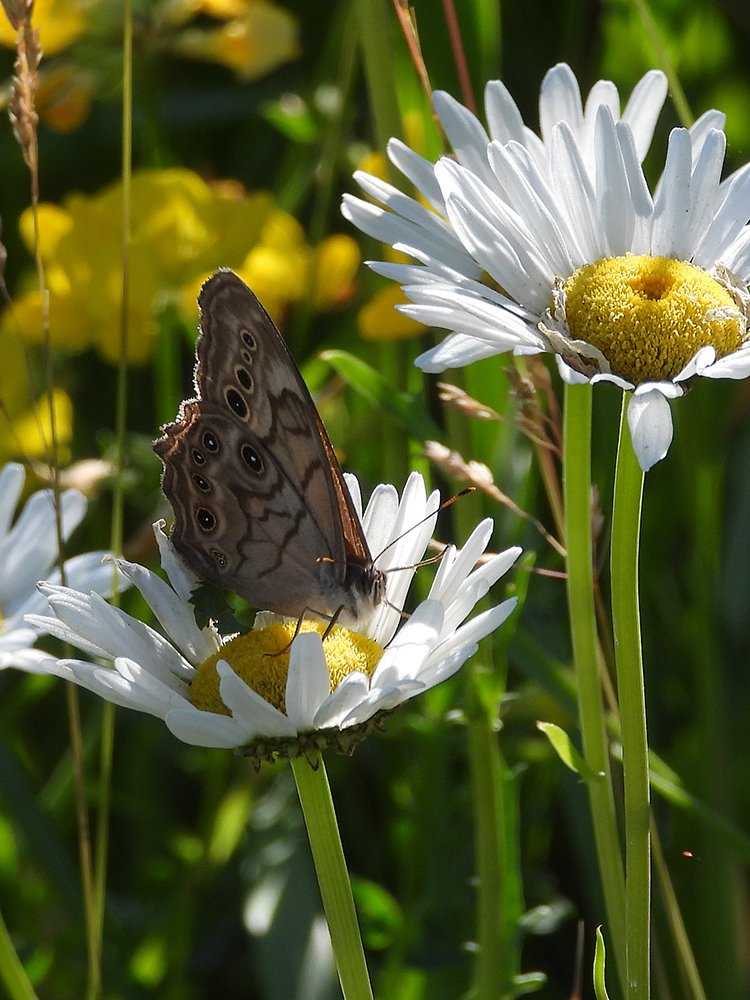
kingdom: Animalia
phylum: Arthropoda
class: Insecta
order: Lepidoptera
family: Nymphalidae
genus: Lethe
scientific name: Lethe anthedon
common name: Northern Pearly-Eye
